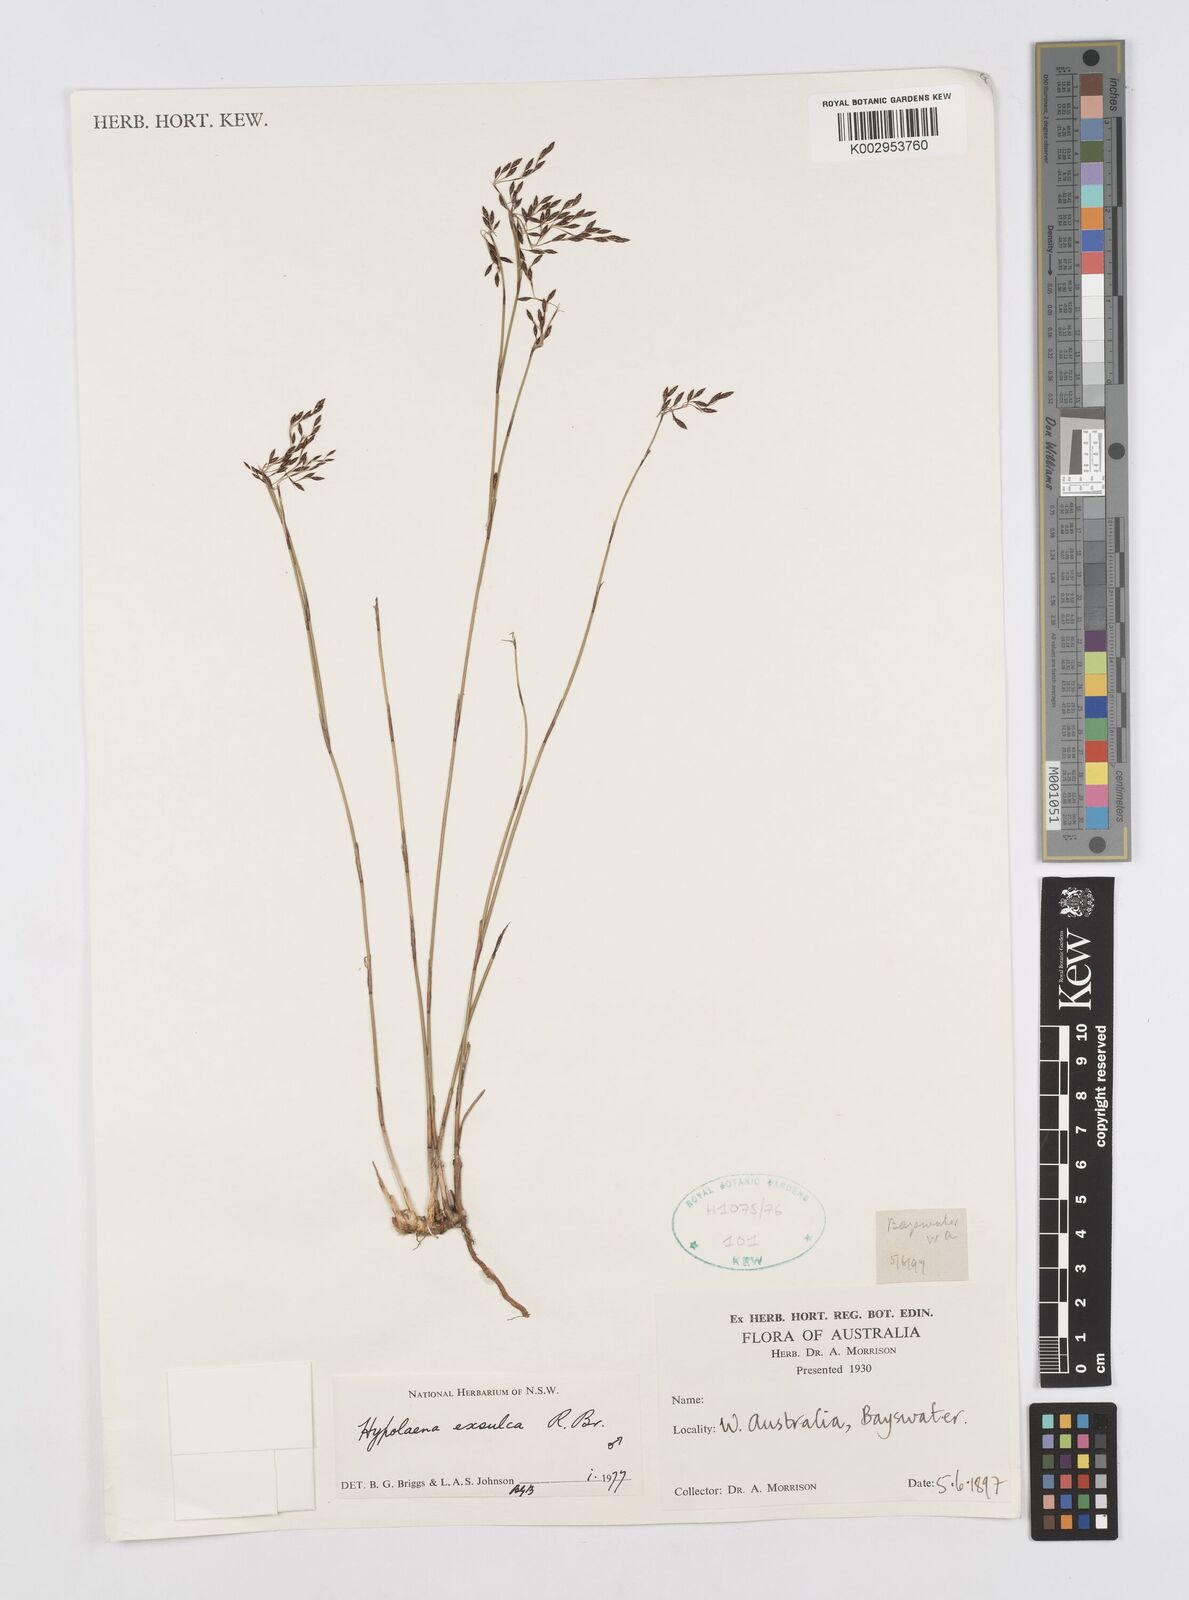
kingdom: Plantae
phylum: Tracheophyta
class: Liliopsida
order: Poales
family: Restionaceae
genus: Hypolaena
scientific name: Hypolaena exsulca
